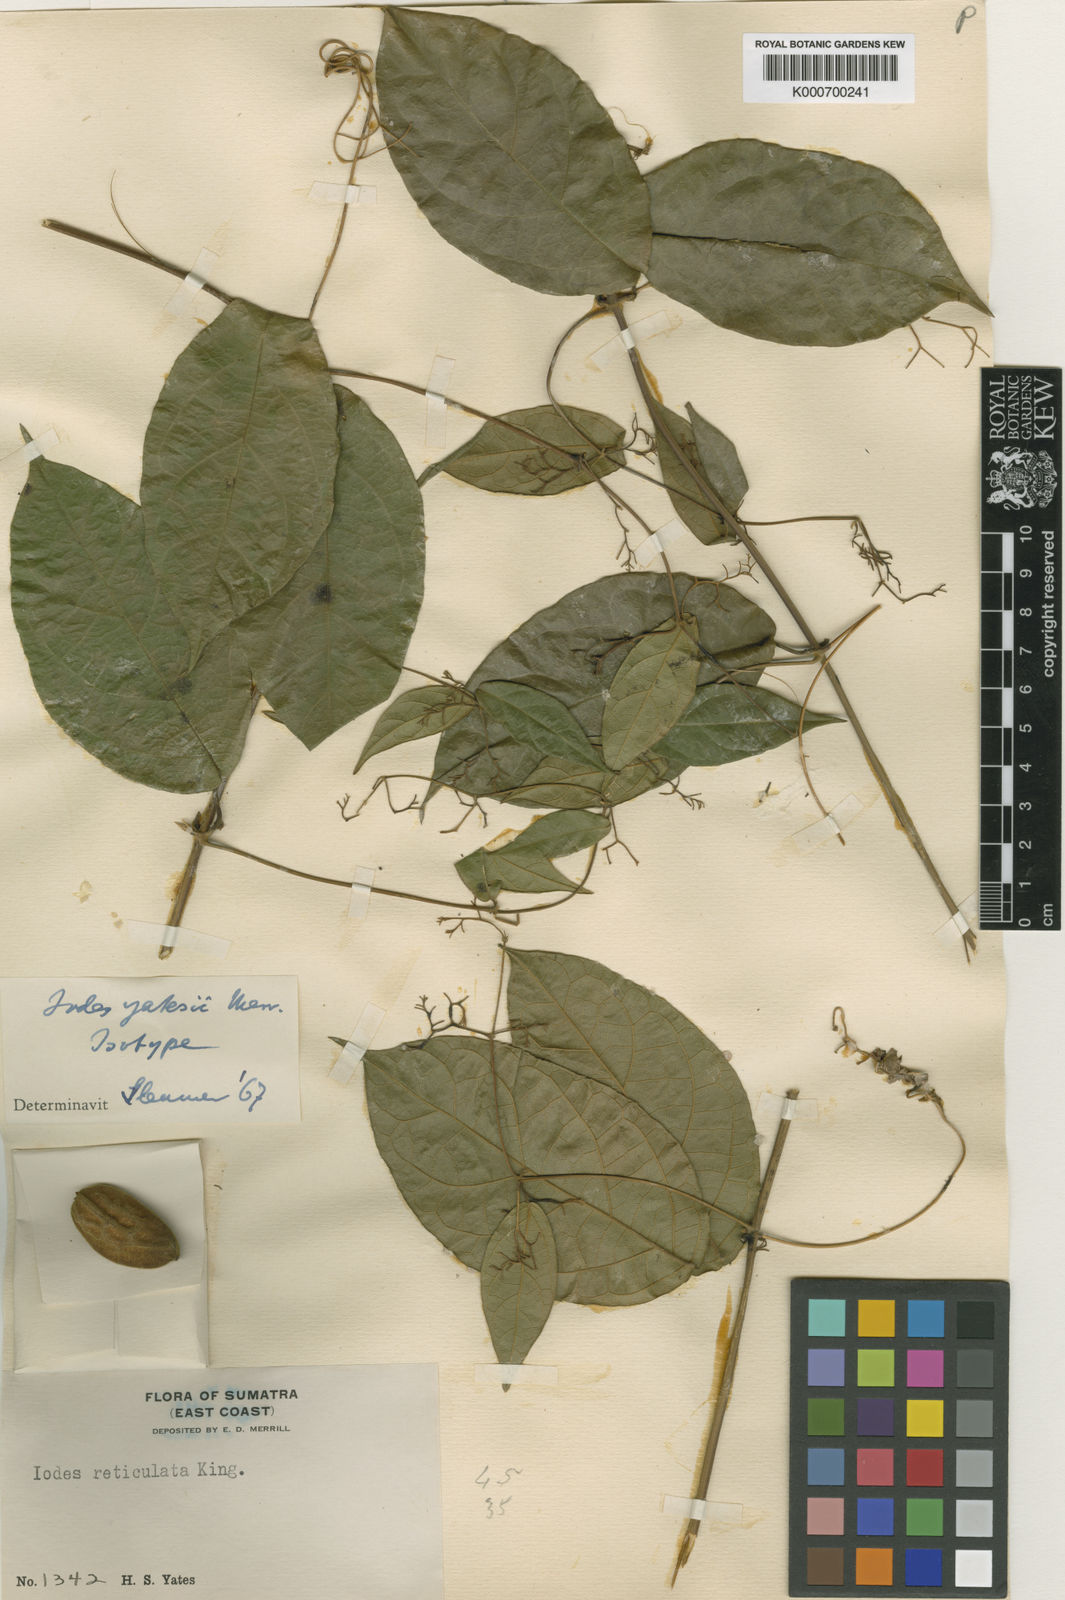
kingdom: Plantae
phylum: Tracheophyta
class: Magnoliopsida
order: Icacinales
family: Icacinaceae
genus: Iodes
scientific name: Iodes yatesii
